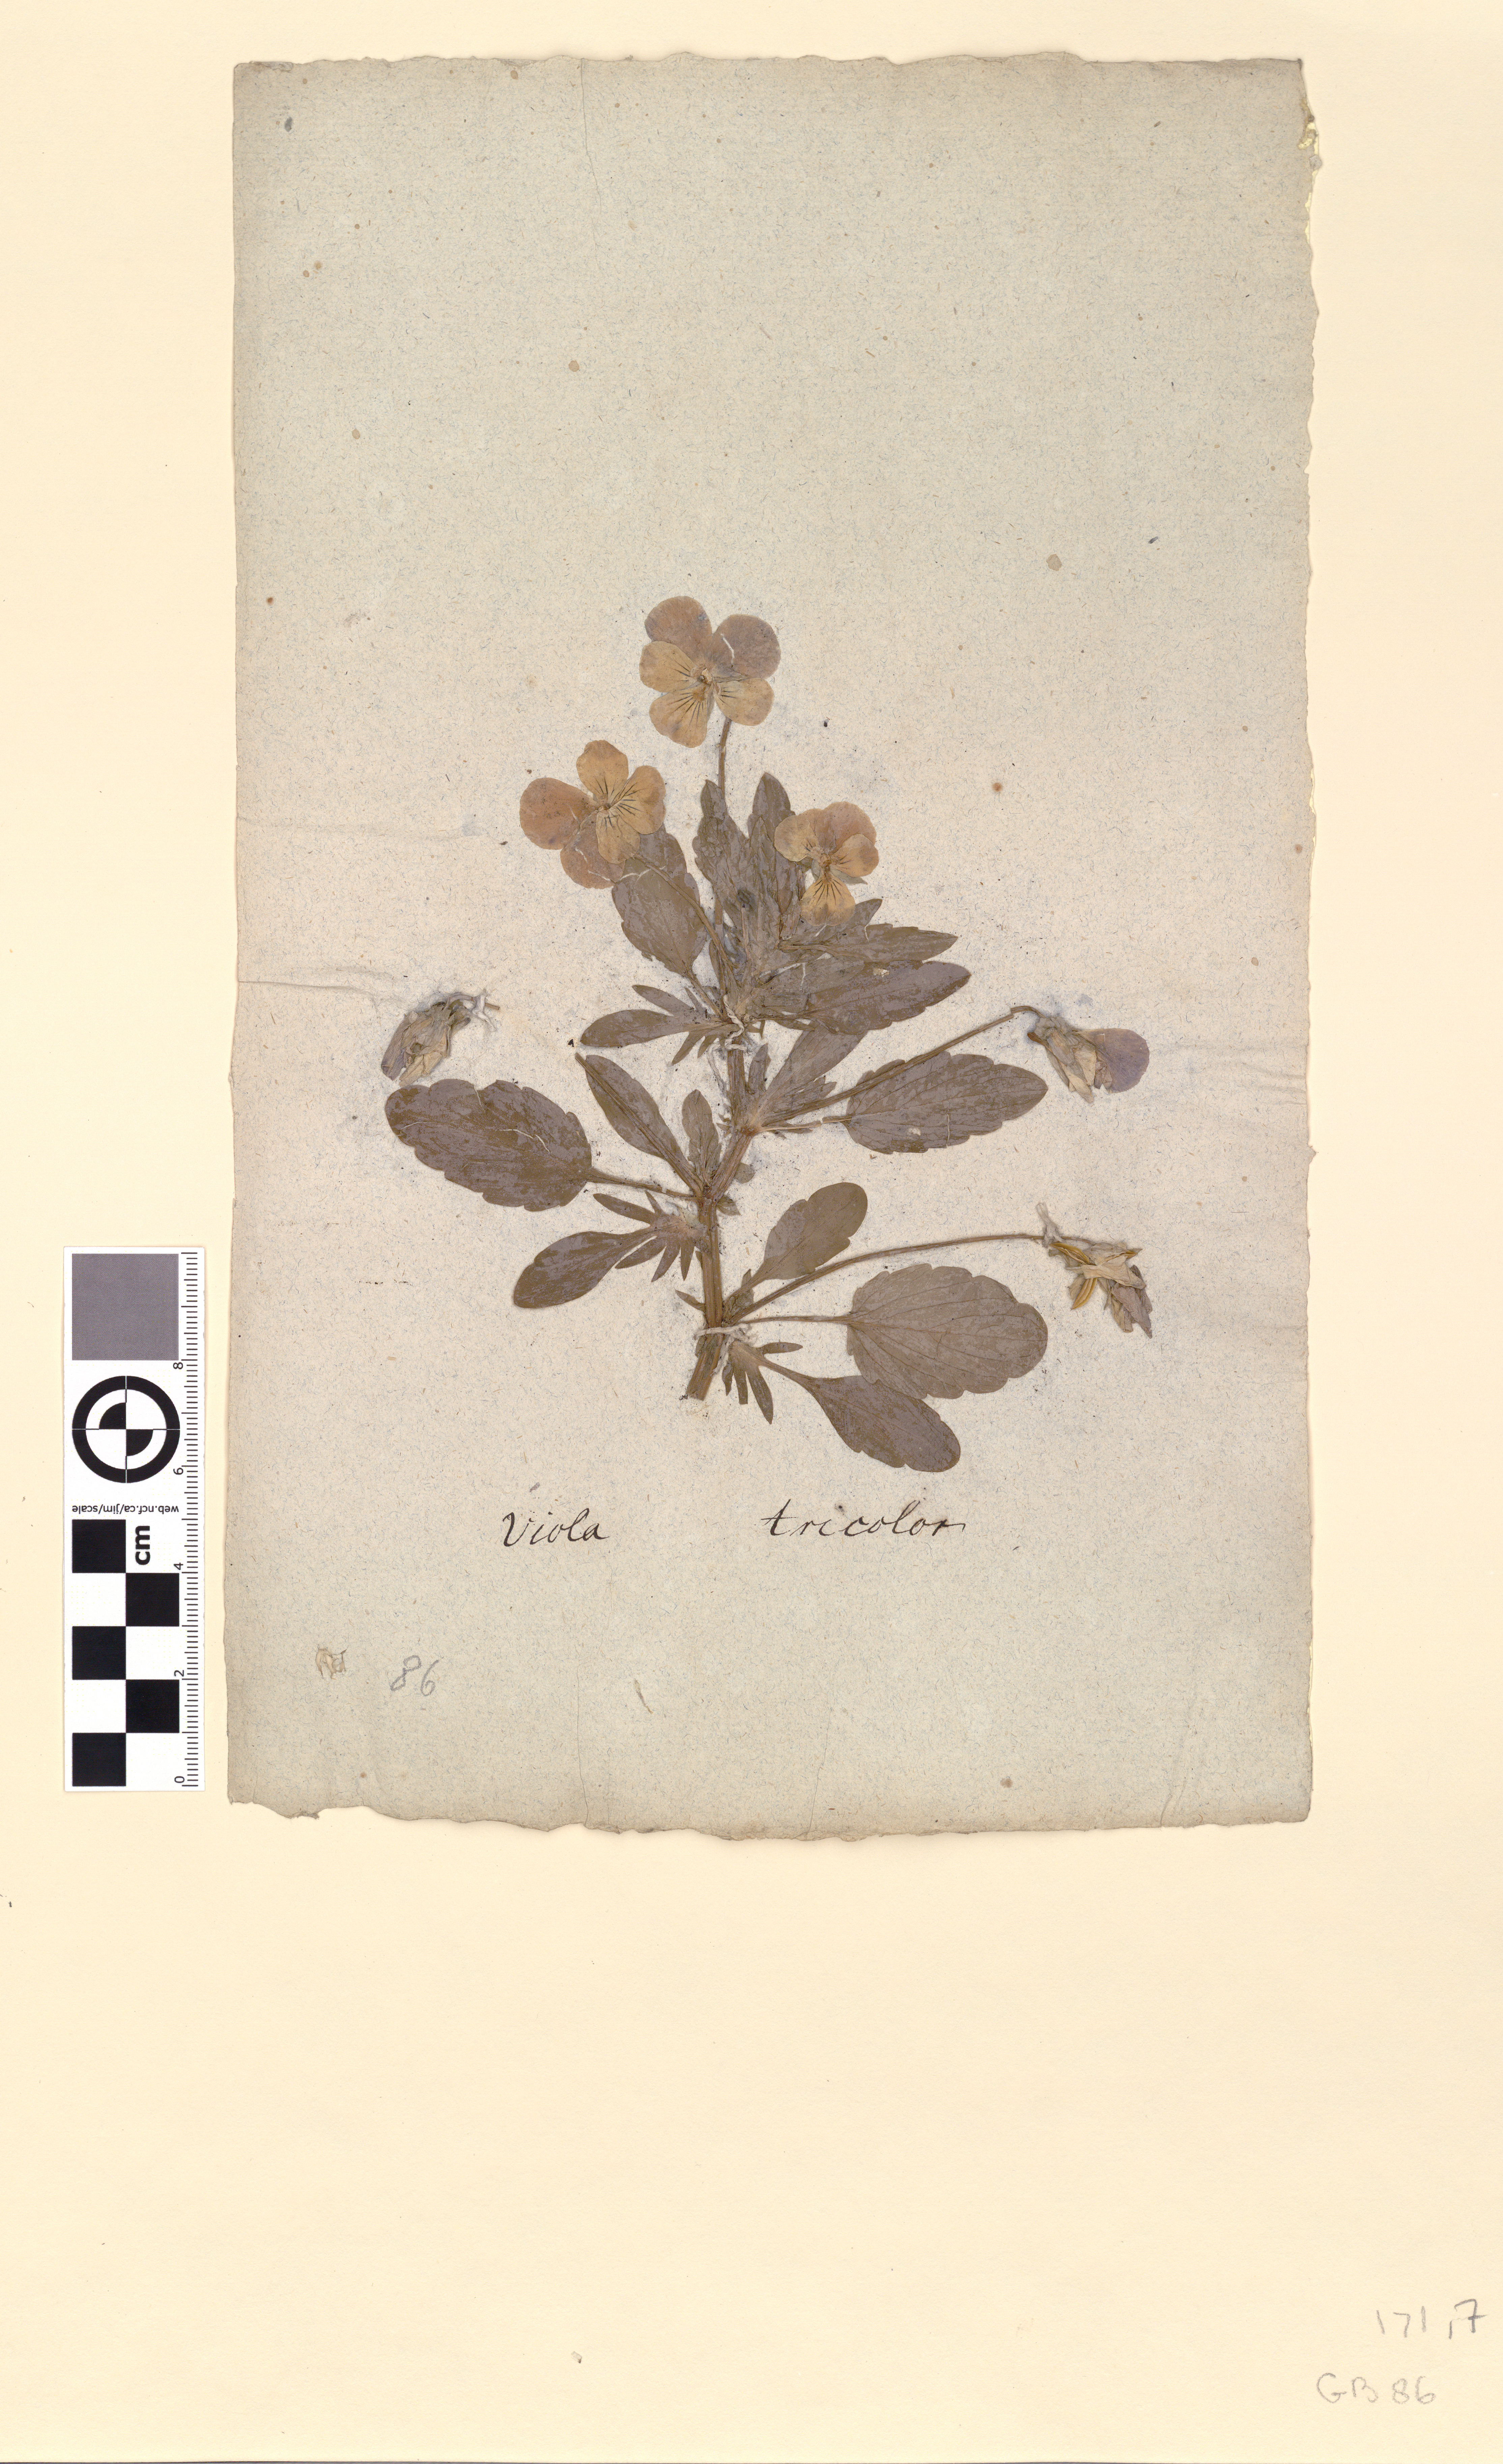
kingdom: Plantae
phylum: Tracheophyta
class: Magnoliopsida
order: Malpighiales
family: Violaceae
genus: Viola
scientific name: Viola tricolor
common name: Pansy
